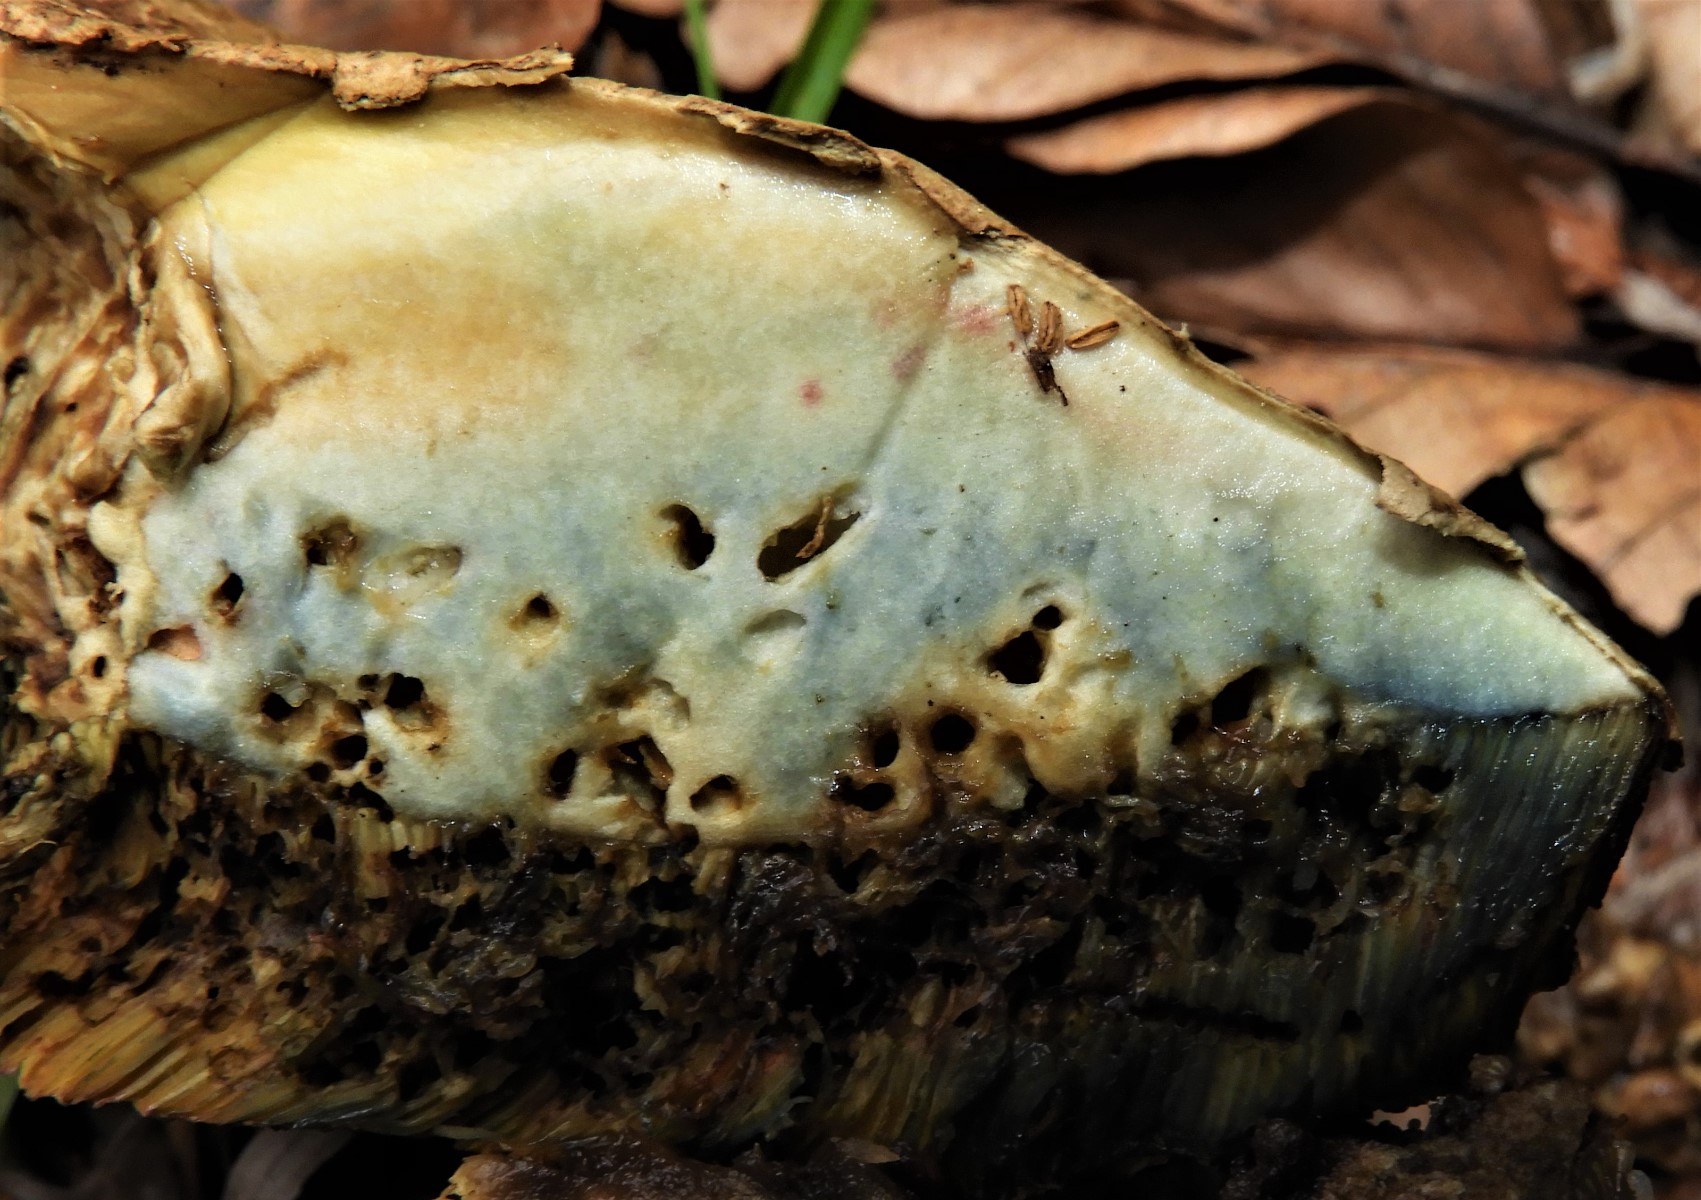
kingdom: Fungi
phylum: Basidiomycota
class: Agaricomycetes
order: Boletales
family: Boletaceae
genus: Suillellus
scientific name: Suillellus luridus
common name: netstokket indigorørhat
